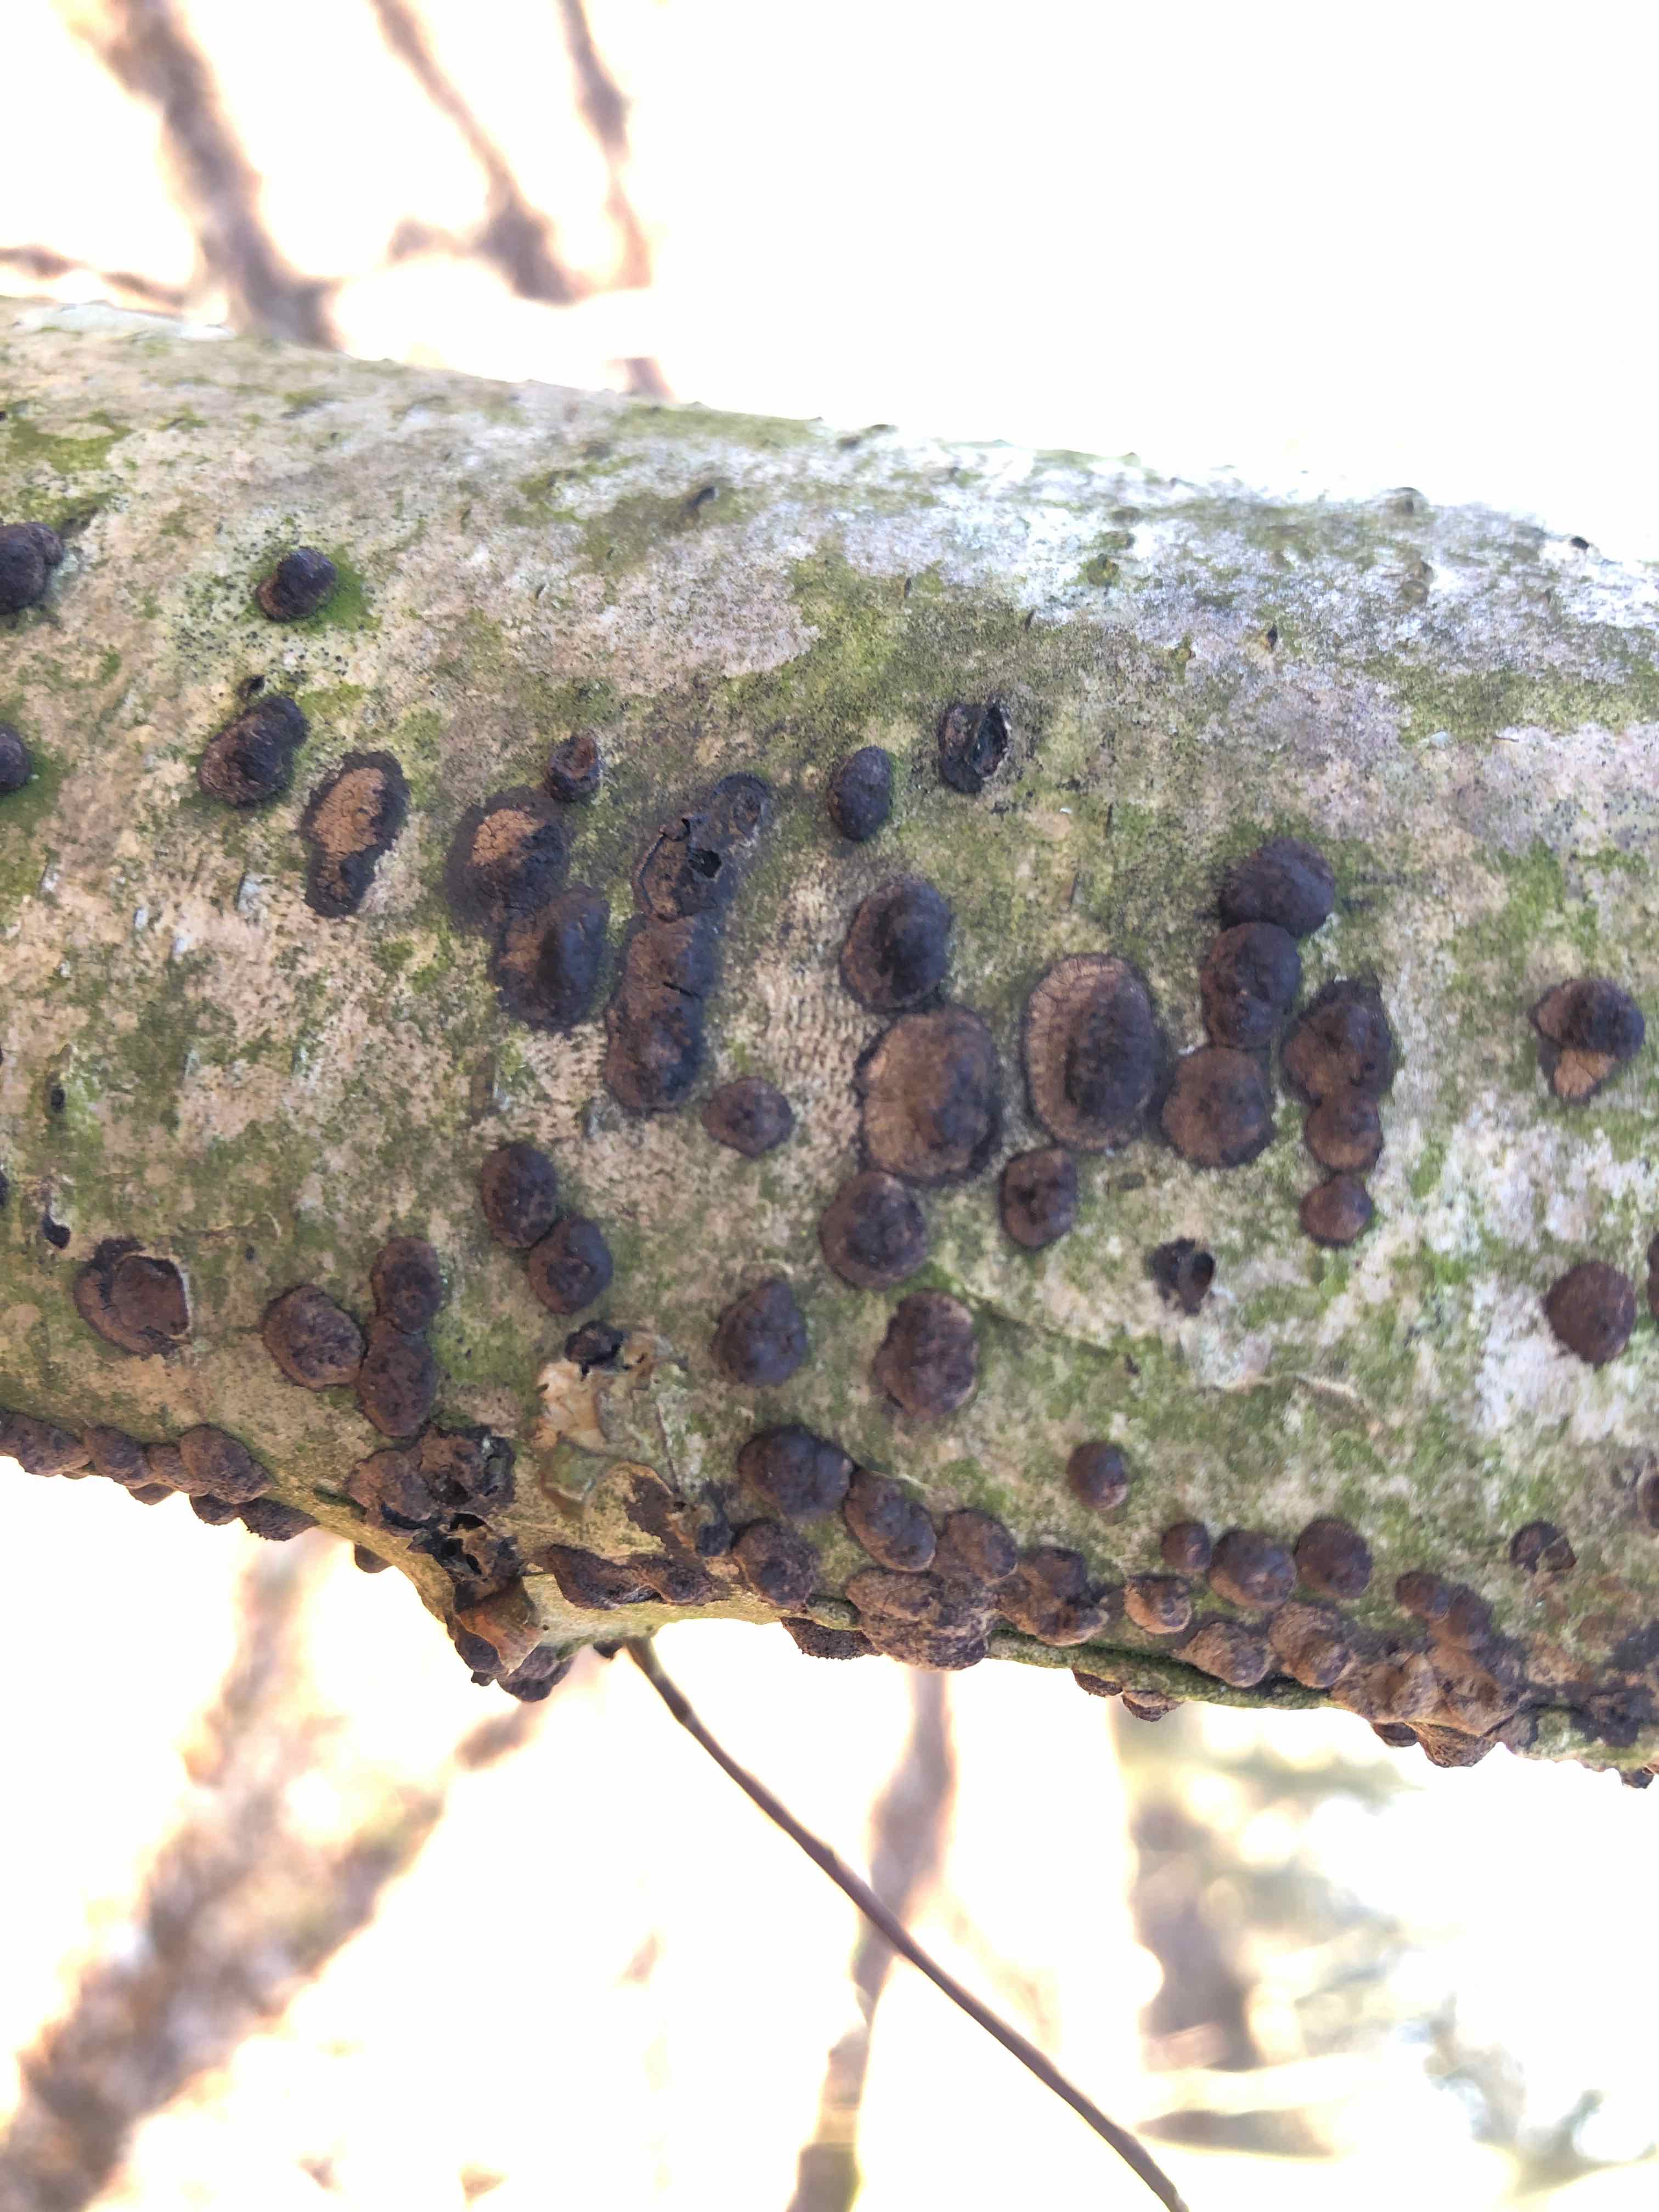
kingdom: Fungi
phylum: Ascomycota
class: Sordariomycetes
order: Xylariales
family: Hypoxylaceae
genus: Hypoxylon
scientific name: Hypoxylon fuscum
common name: kegleformet kulbær
